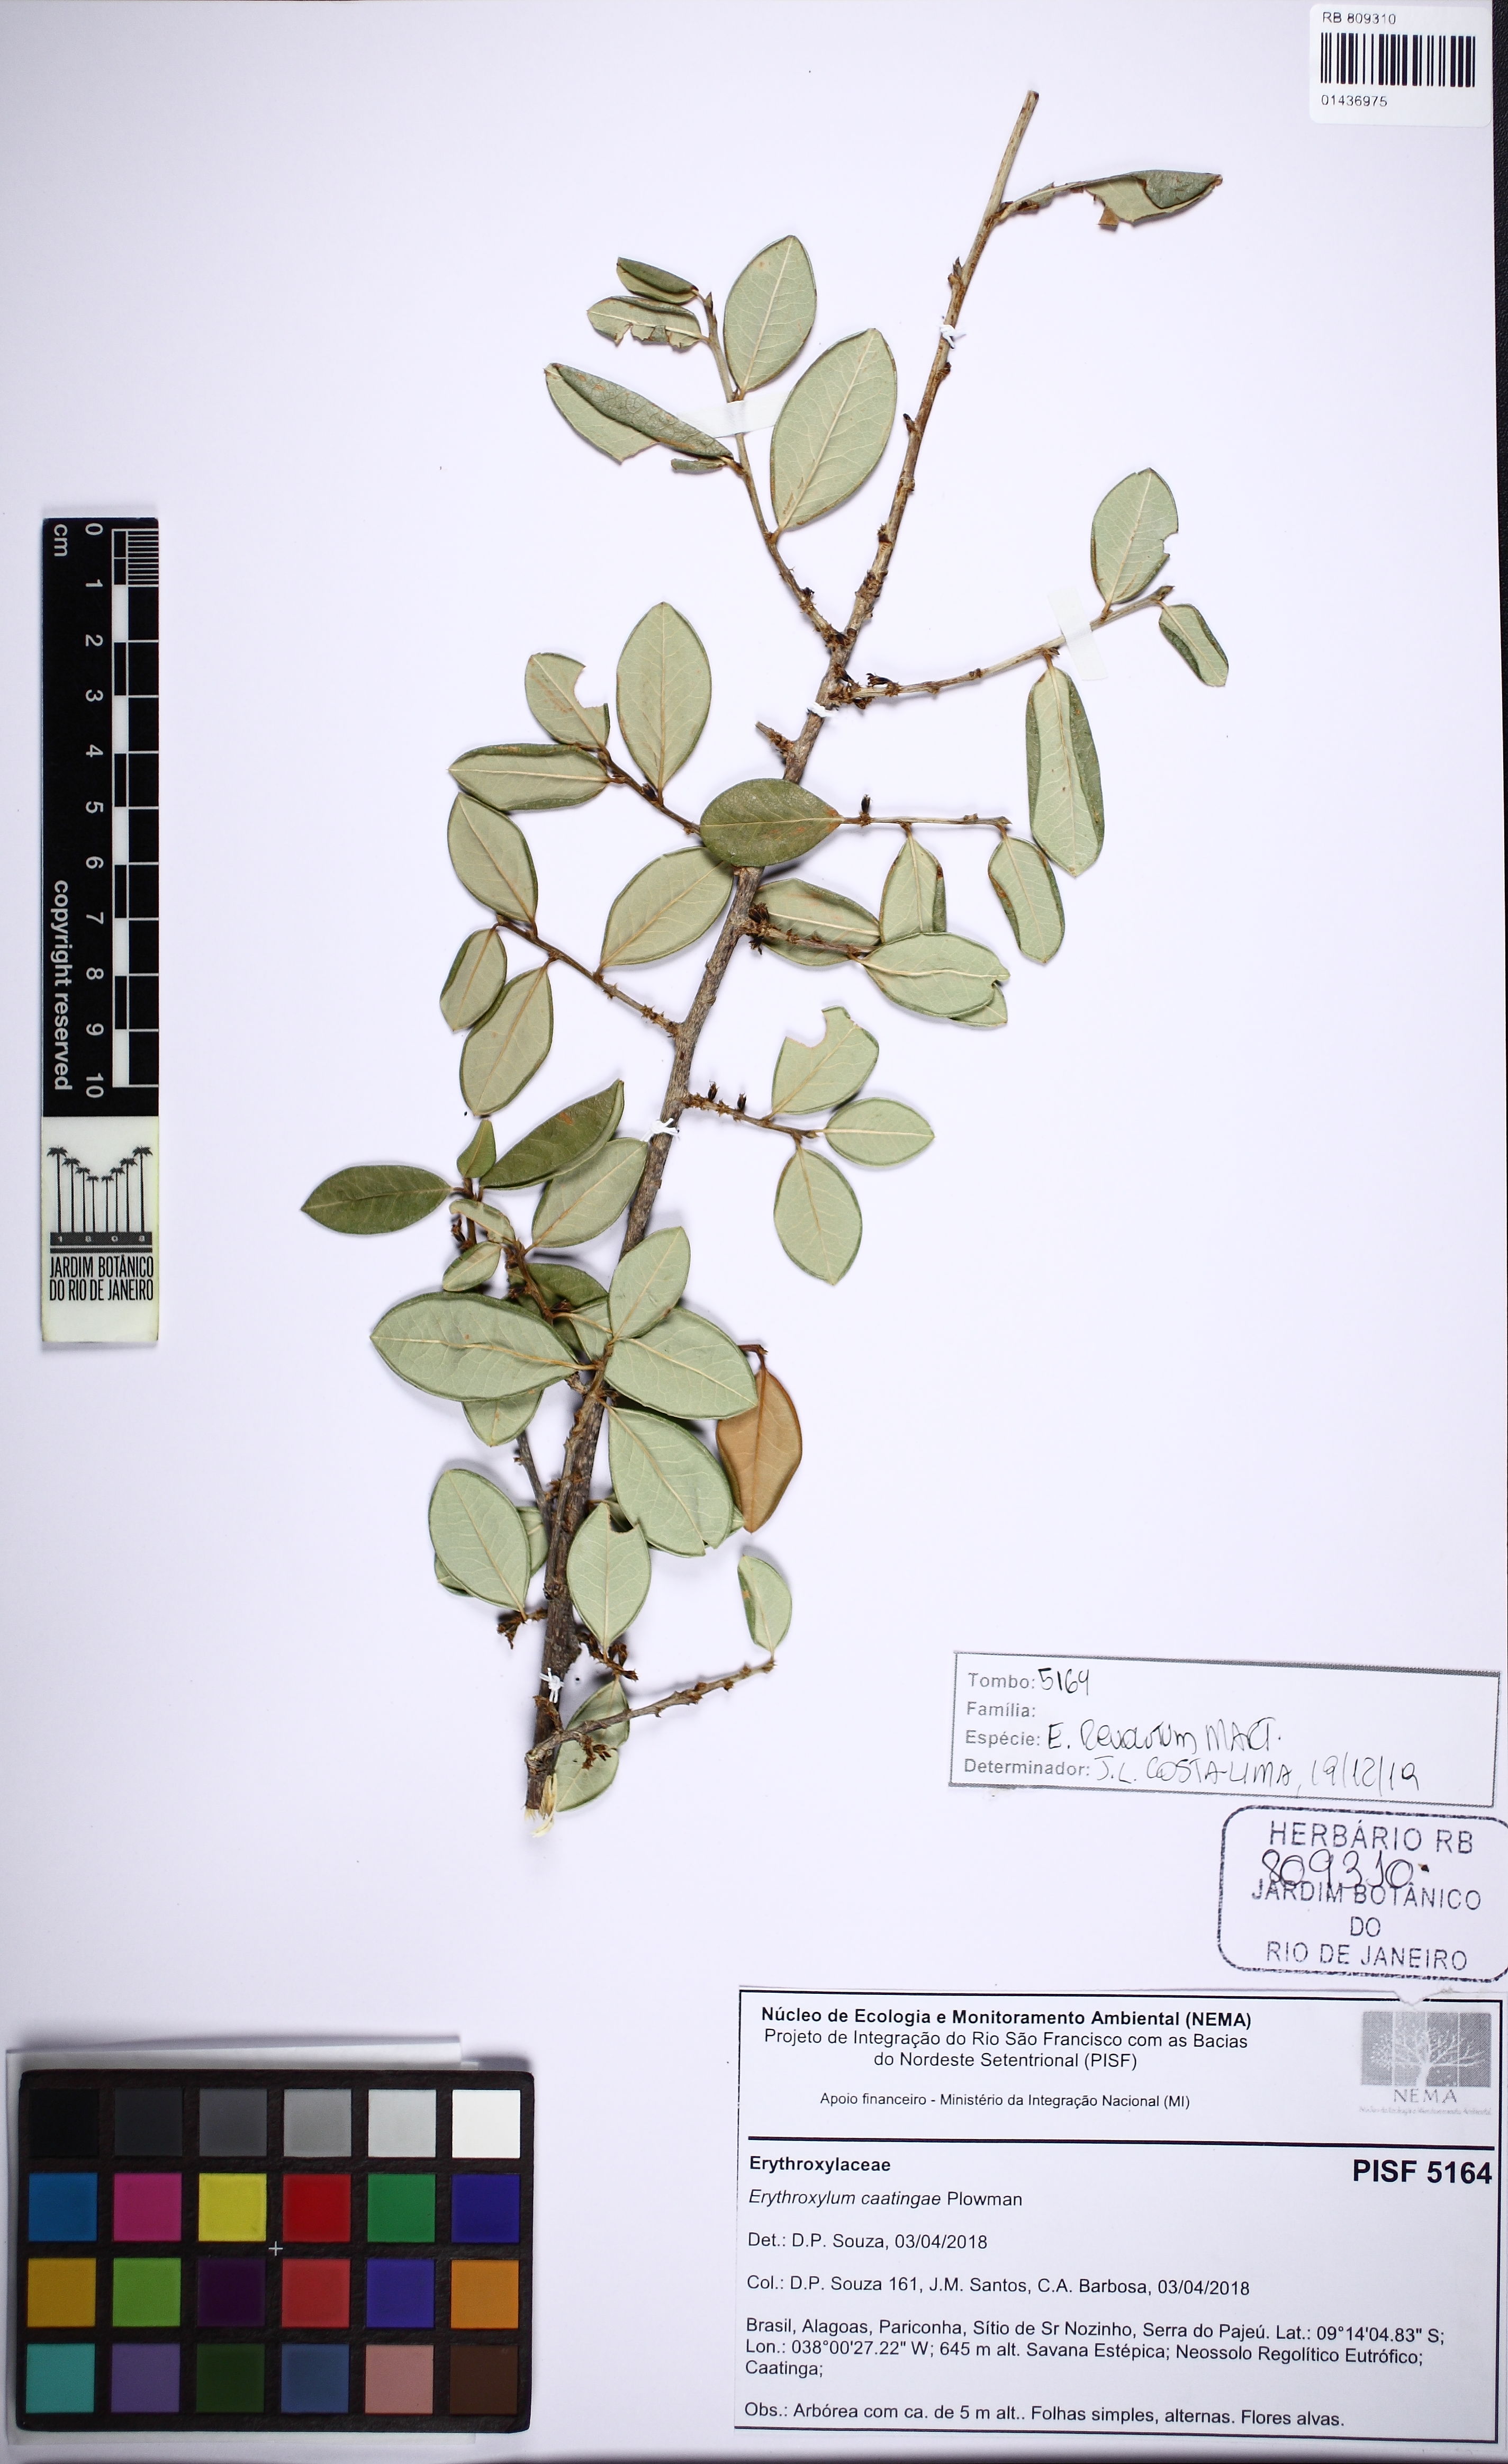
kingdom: Plantae
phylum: Tracheophyta
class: Magnoliopsida
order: Malpighiales
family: Erythroxylaceae
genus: Erythroxylum
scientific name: Erythroxylum revolutum
